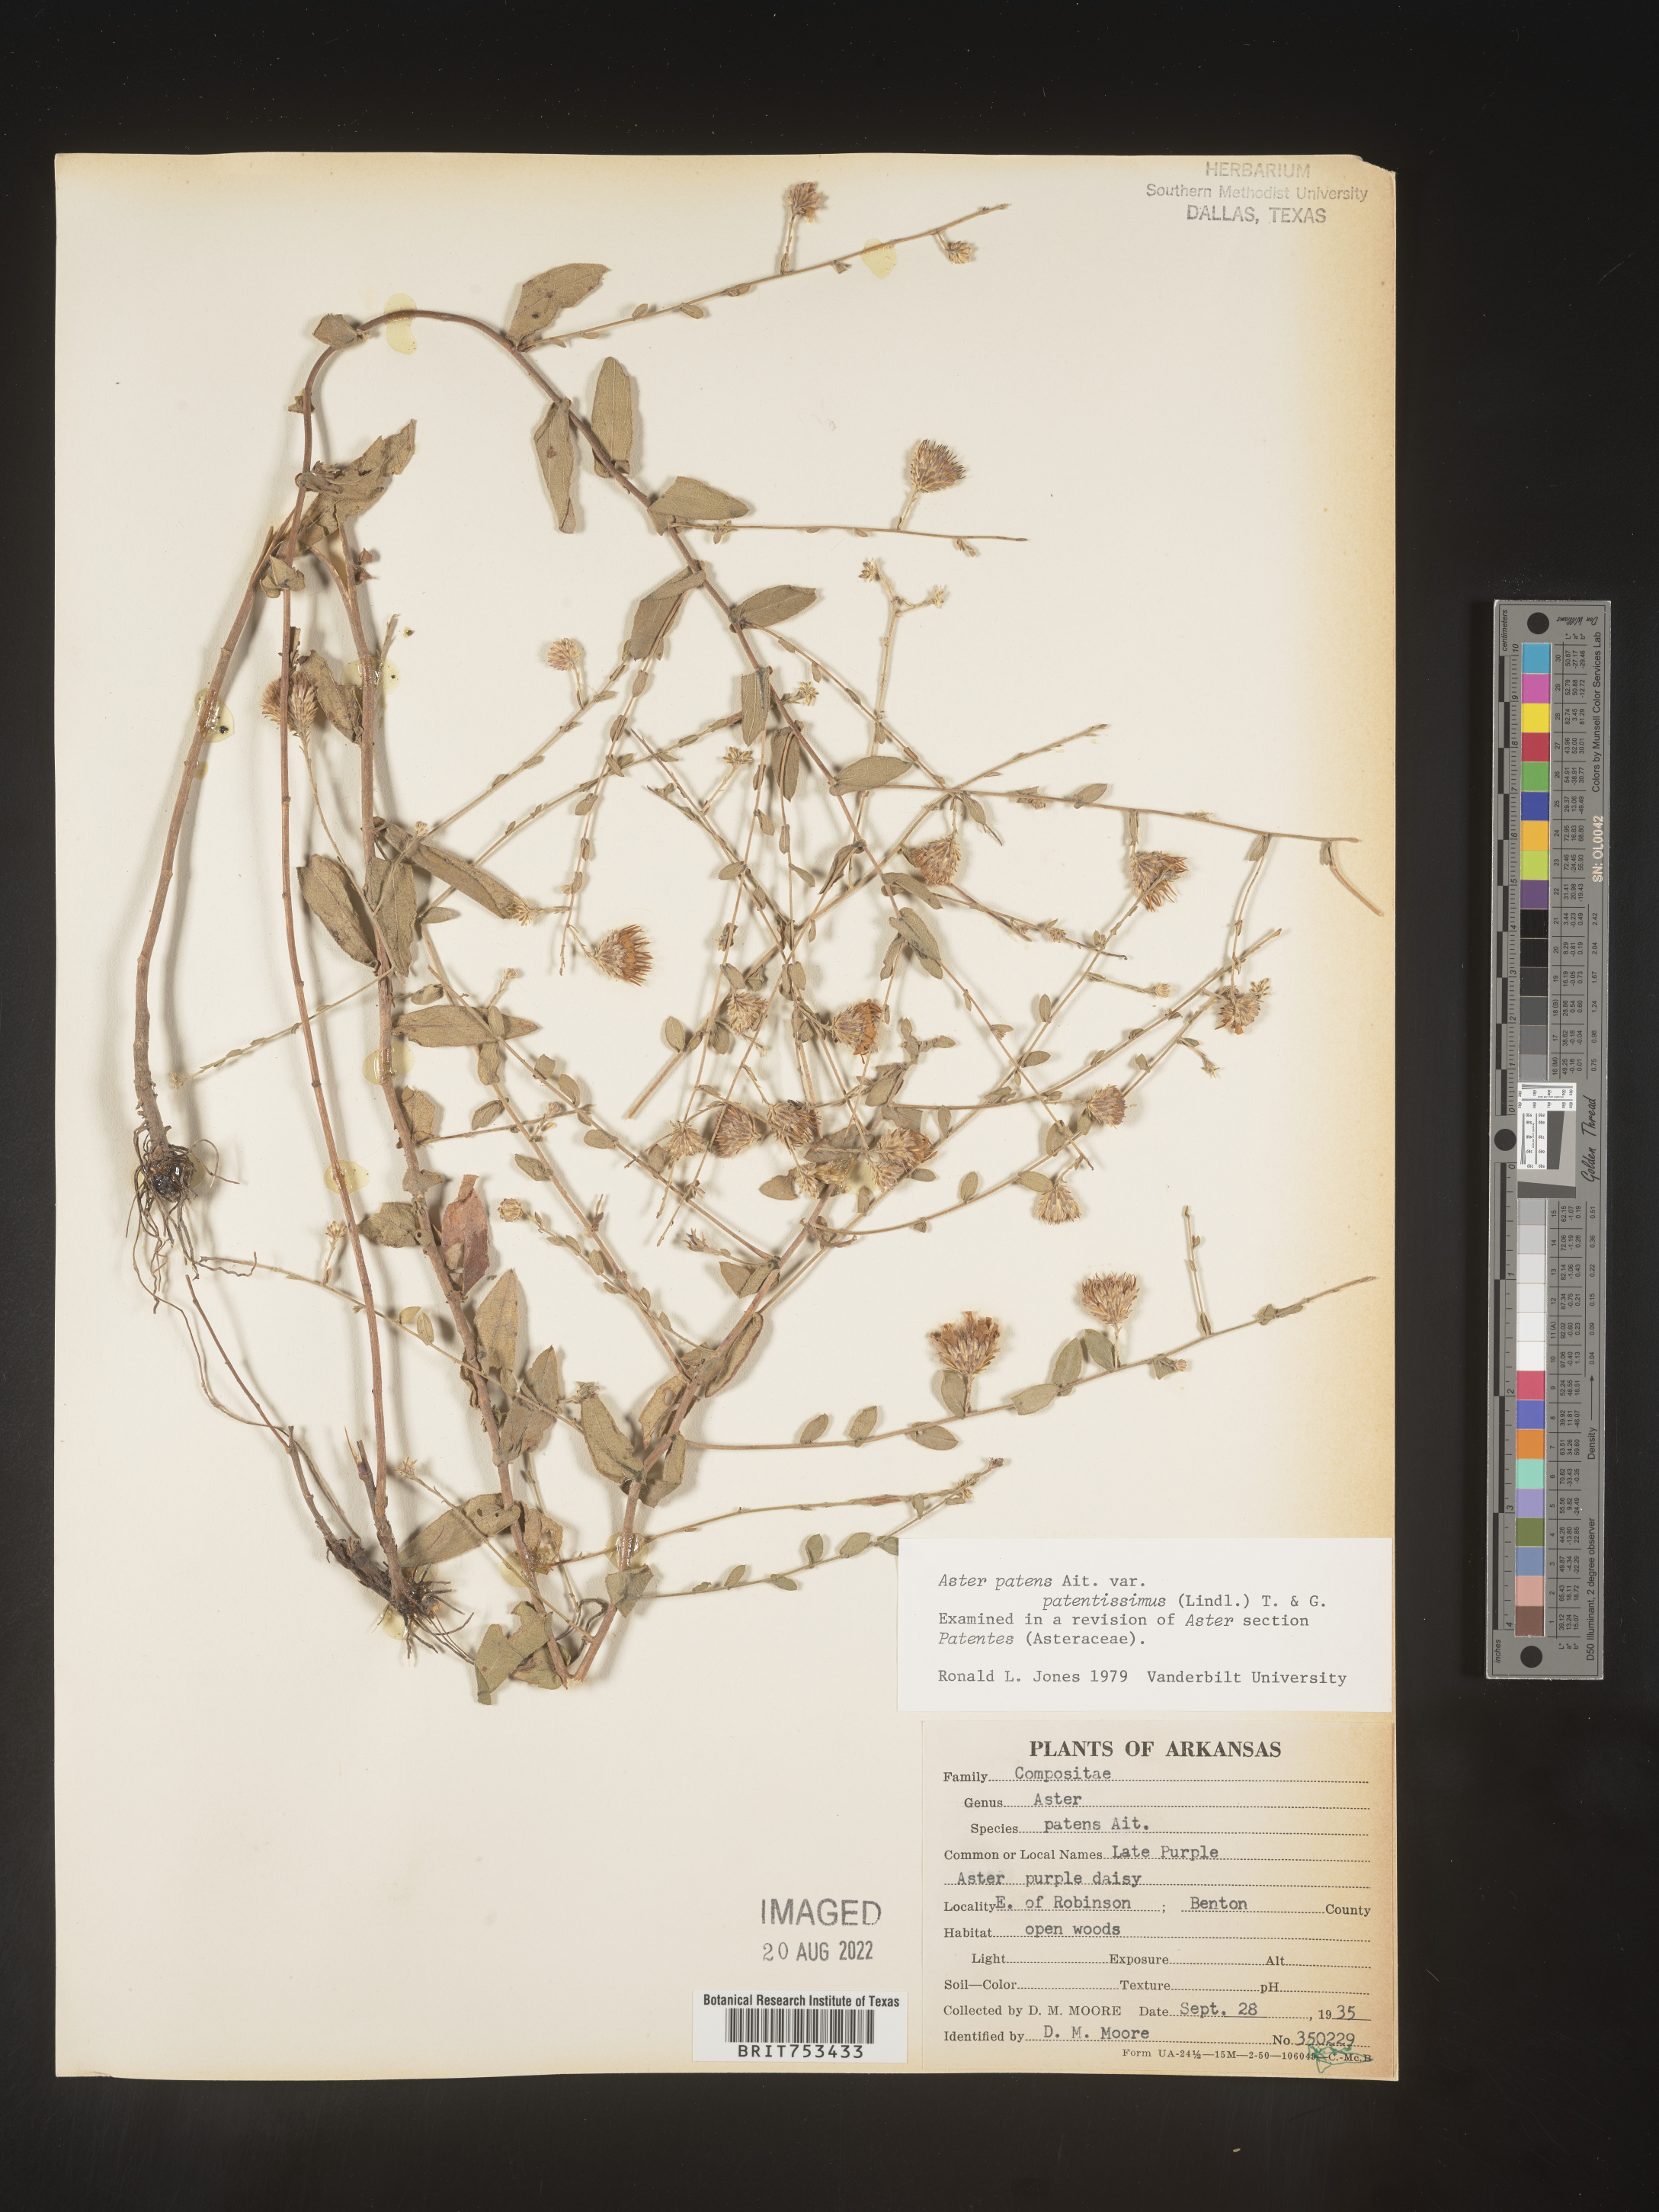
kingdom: Plantae
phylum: Tracheophyta
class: Magnoliopsida
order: Asterales
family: Asteraceae
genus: Symphyotrichum
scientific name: Symphyotrichum patens
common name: Late purple aster
